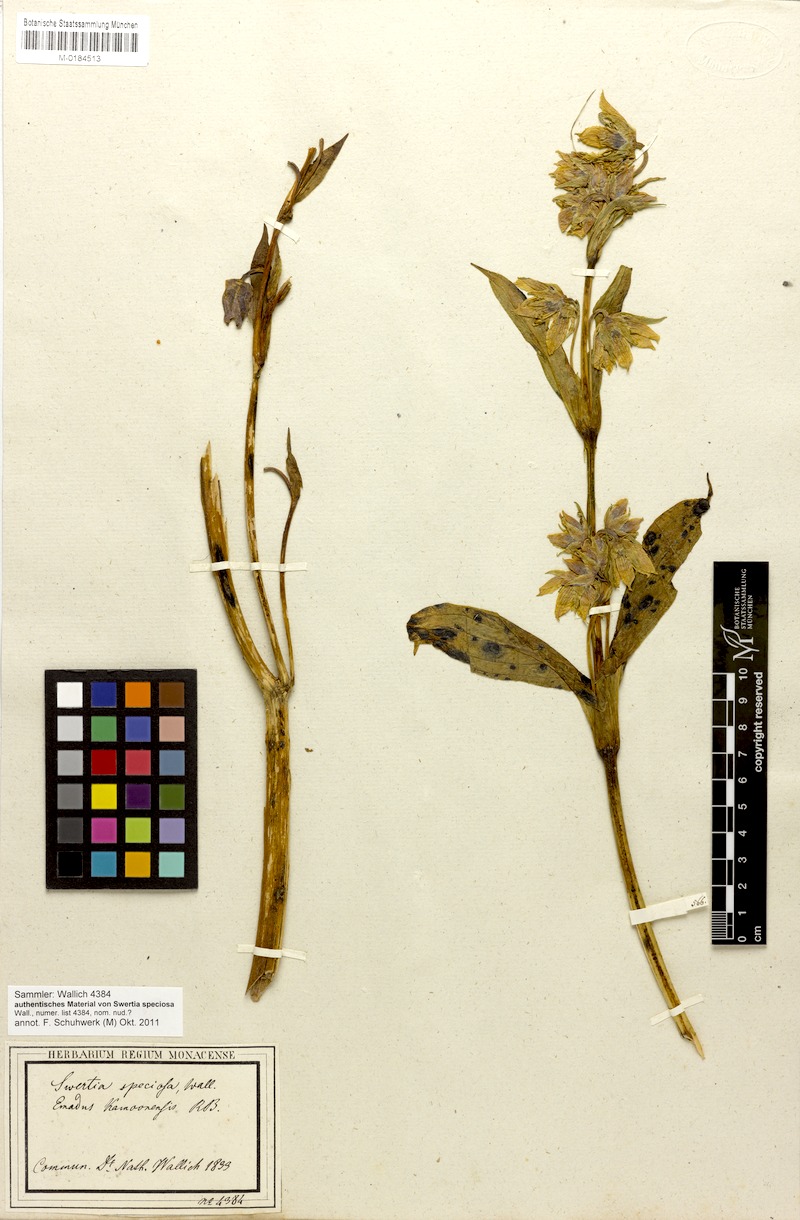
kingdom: Plantae
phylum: Tracheophyta
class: Magnoliopsida
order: Gentianales
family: Gentianaceae
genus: Swertia
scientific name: Swertia speciosa
